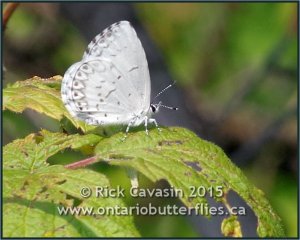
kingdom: Animalia
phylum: Arthropoda
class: Insecta
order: Lepidoptera
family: Lycaenidae
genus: Cyaniris
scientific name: Cyaniris neglecta
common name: Summer Azure
